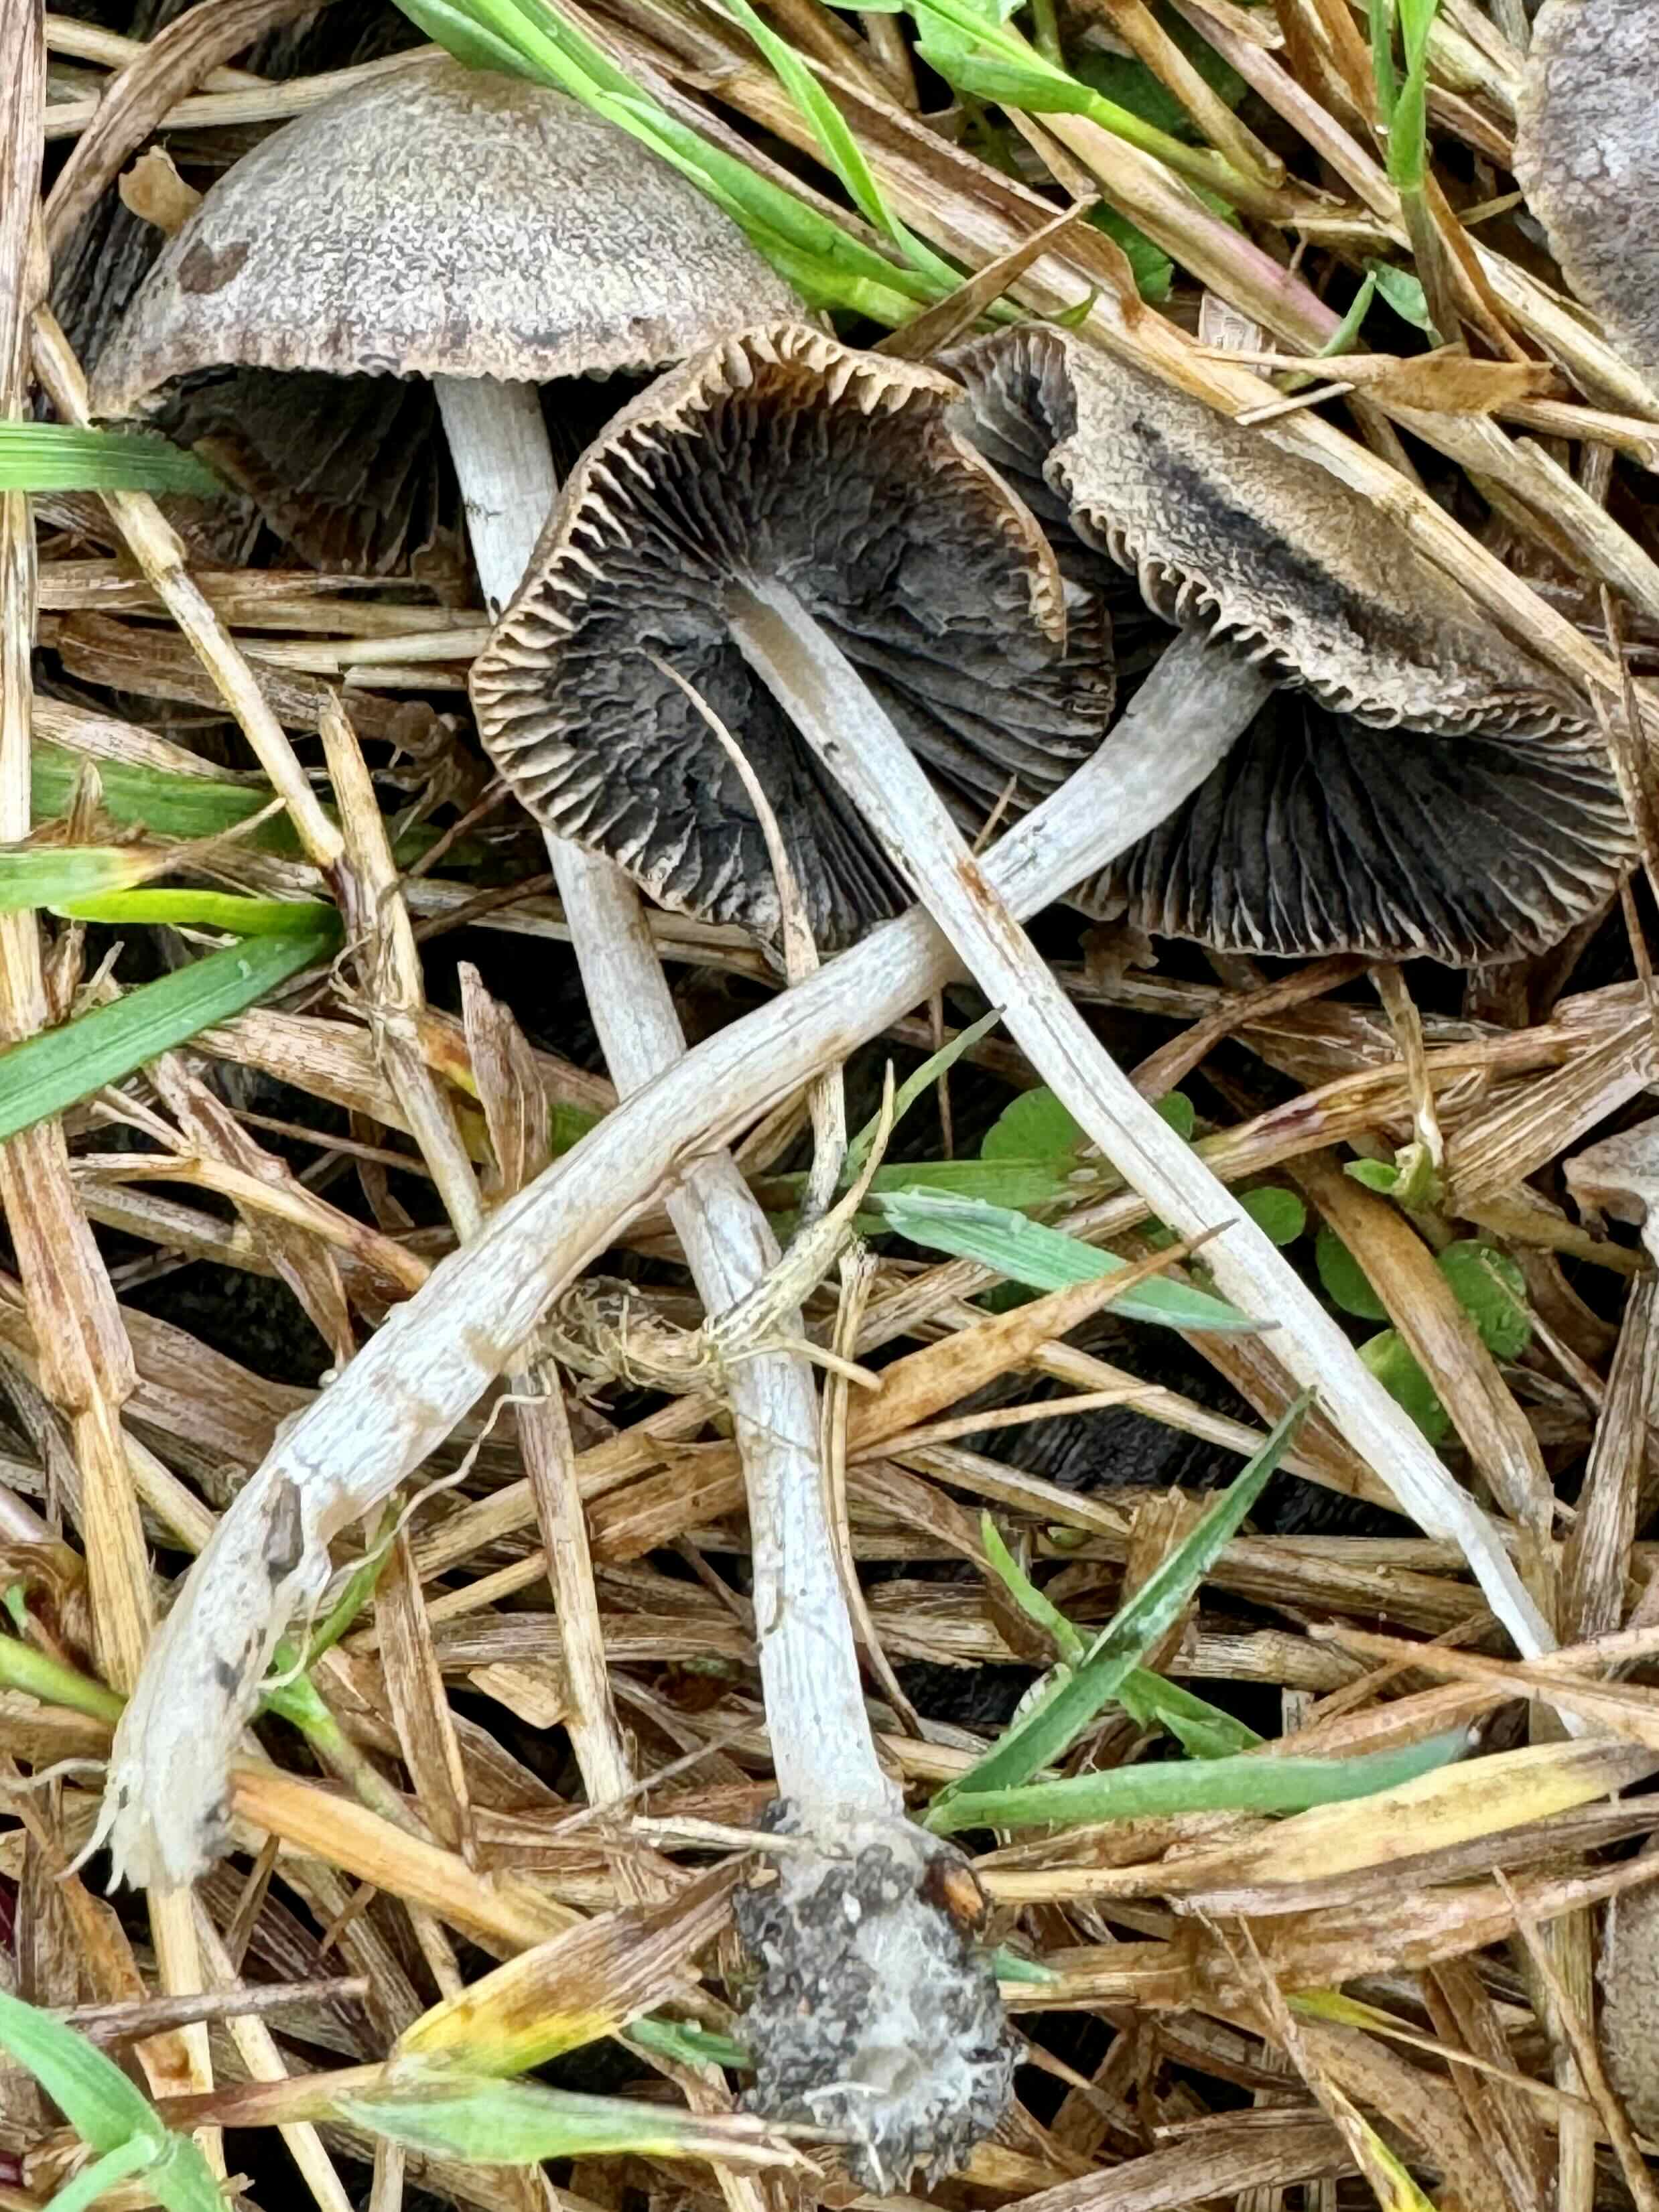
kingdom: Fungi
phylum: Basidiomycota
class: Agaricomycetes
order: Agaricales
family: Psathyrellaceae
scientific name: Psathyrellaceae
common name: mørkhatfamilien
